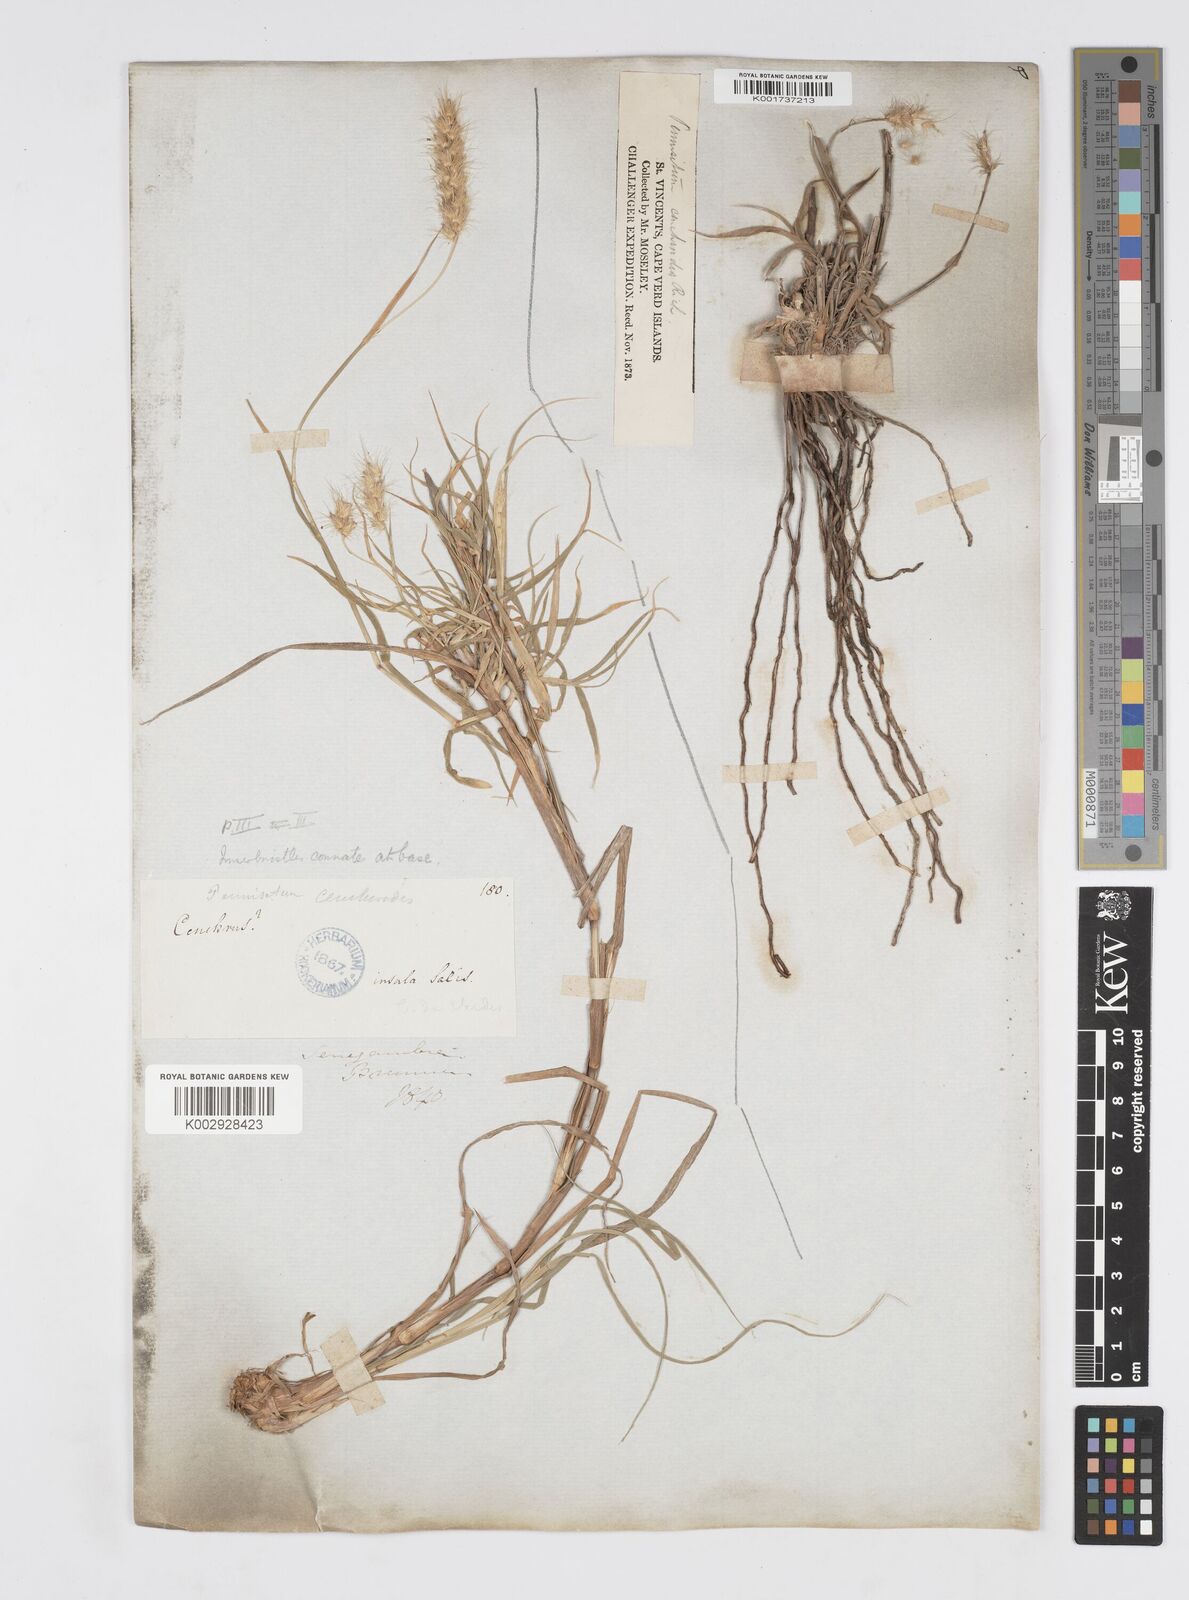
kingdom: Plantae
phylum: Tracheophyta
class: Liliopsida
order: Poales
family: Poaceae
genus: Cenchrus
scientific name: Cenchrus ciliaris
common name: Buffelgrass
